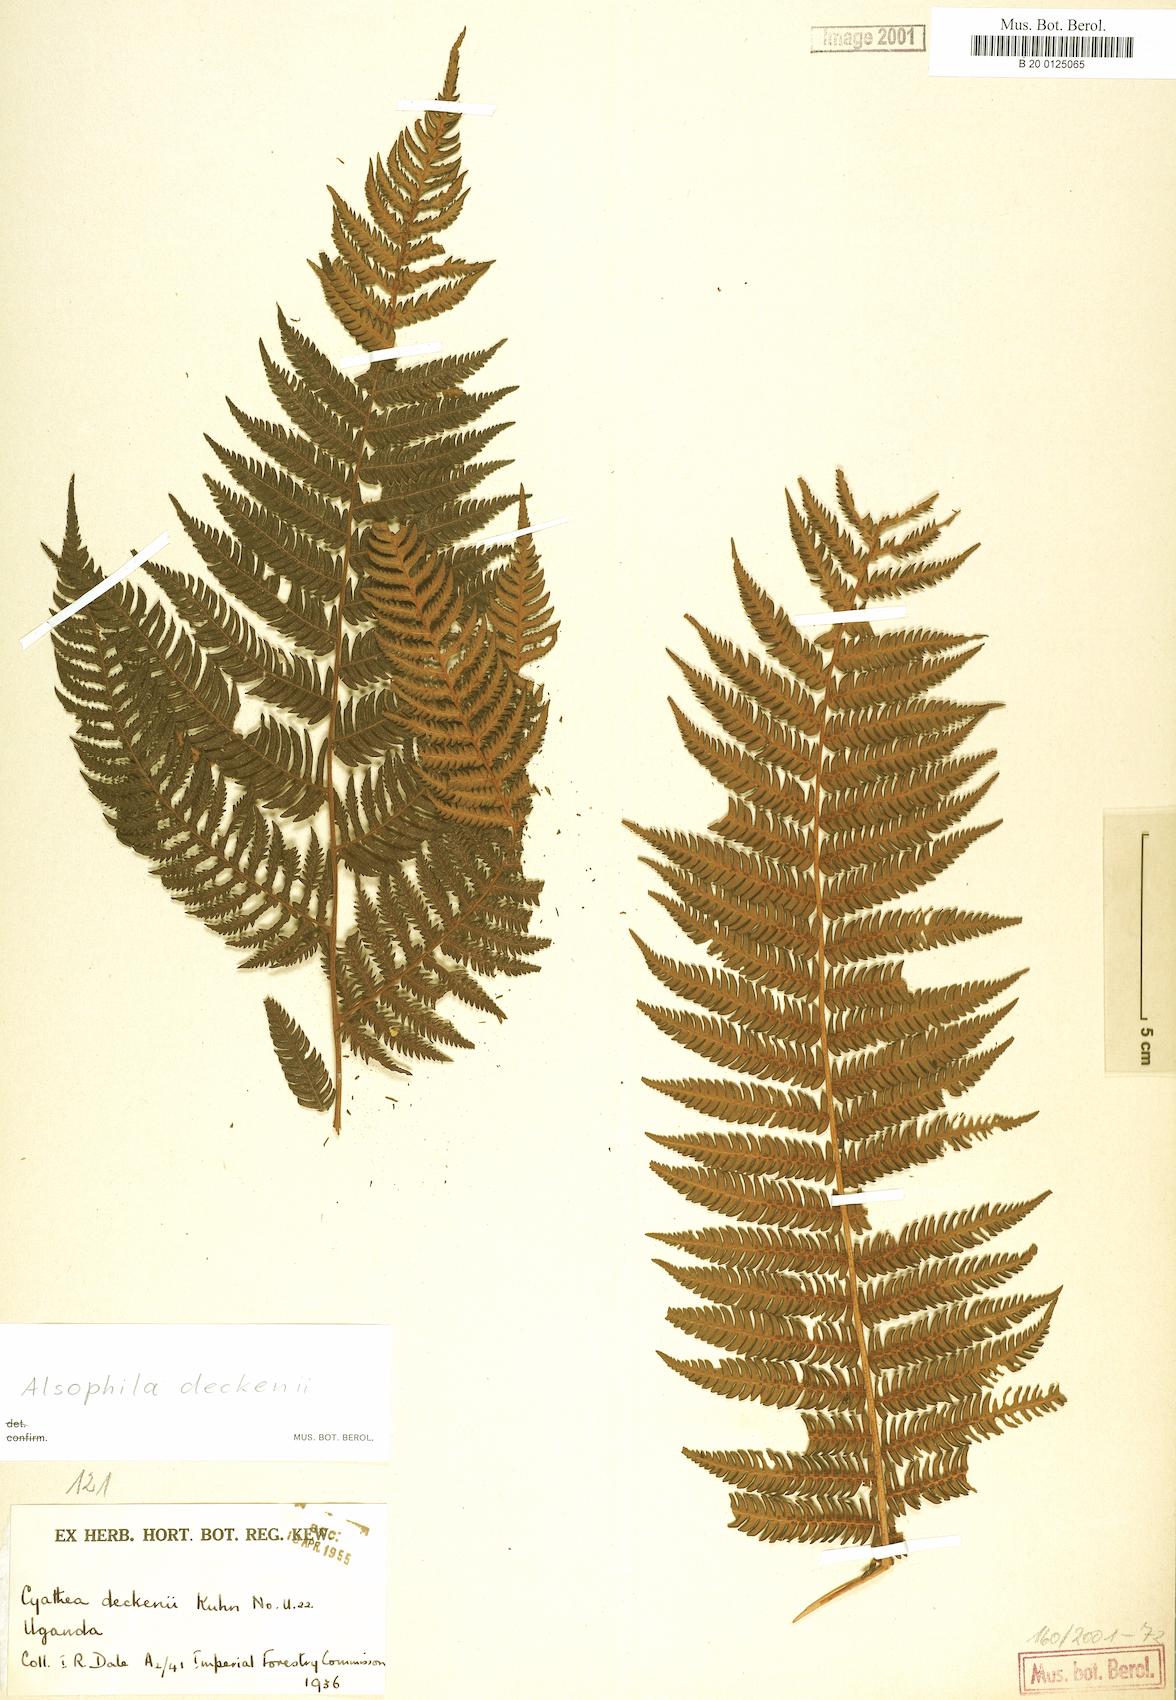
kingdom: Plantae
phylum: Tracheophyta
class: Polypodiopsida
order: Cyatheales
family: Cyatheaceae
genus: Alsophila
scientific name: Alsophila deckenii
